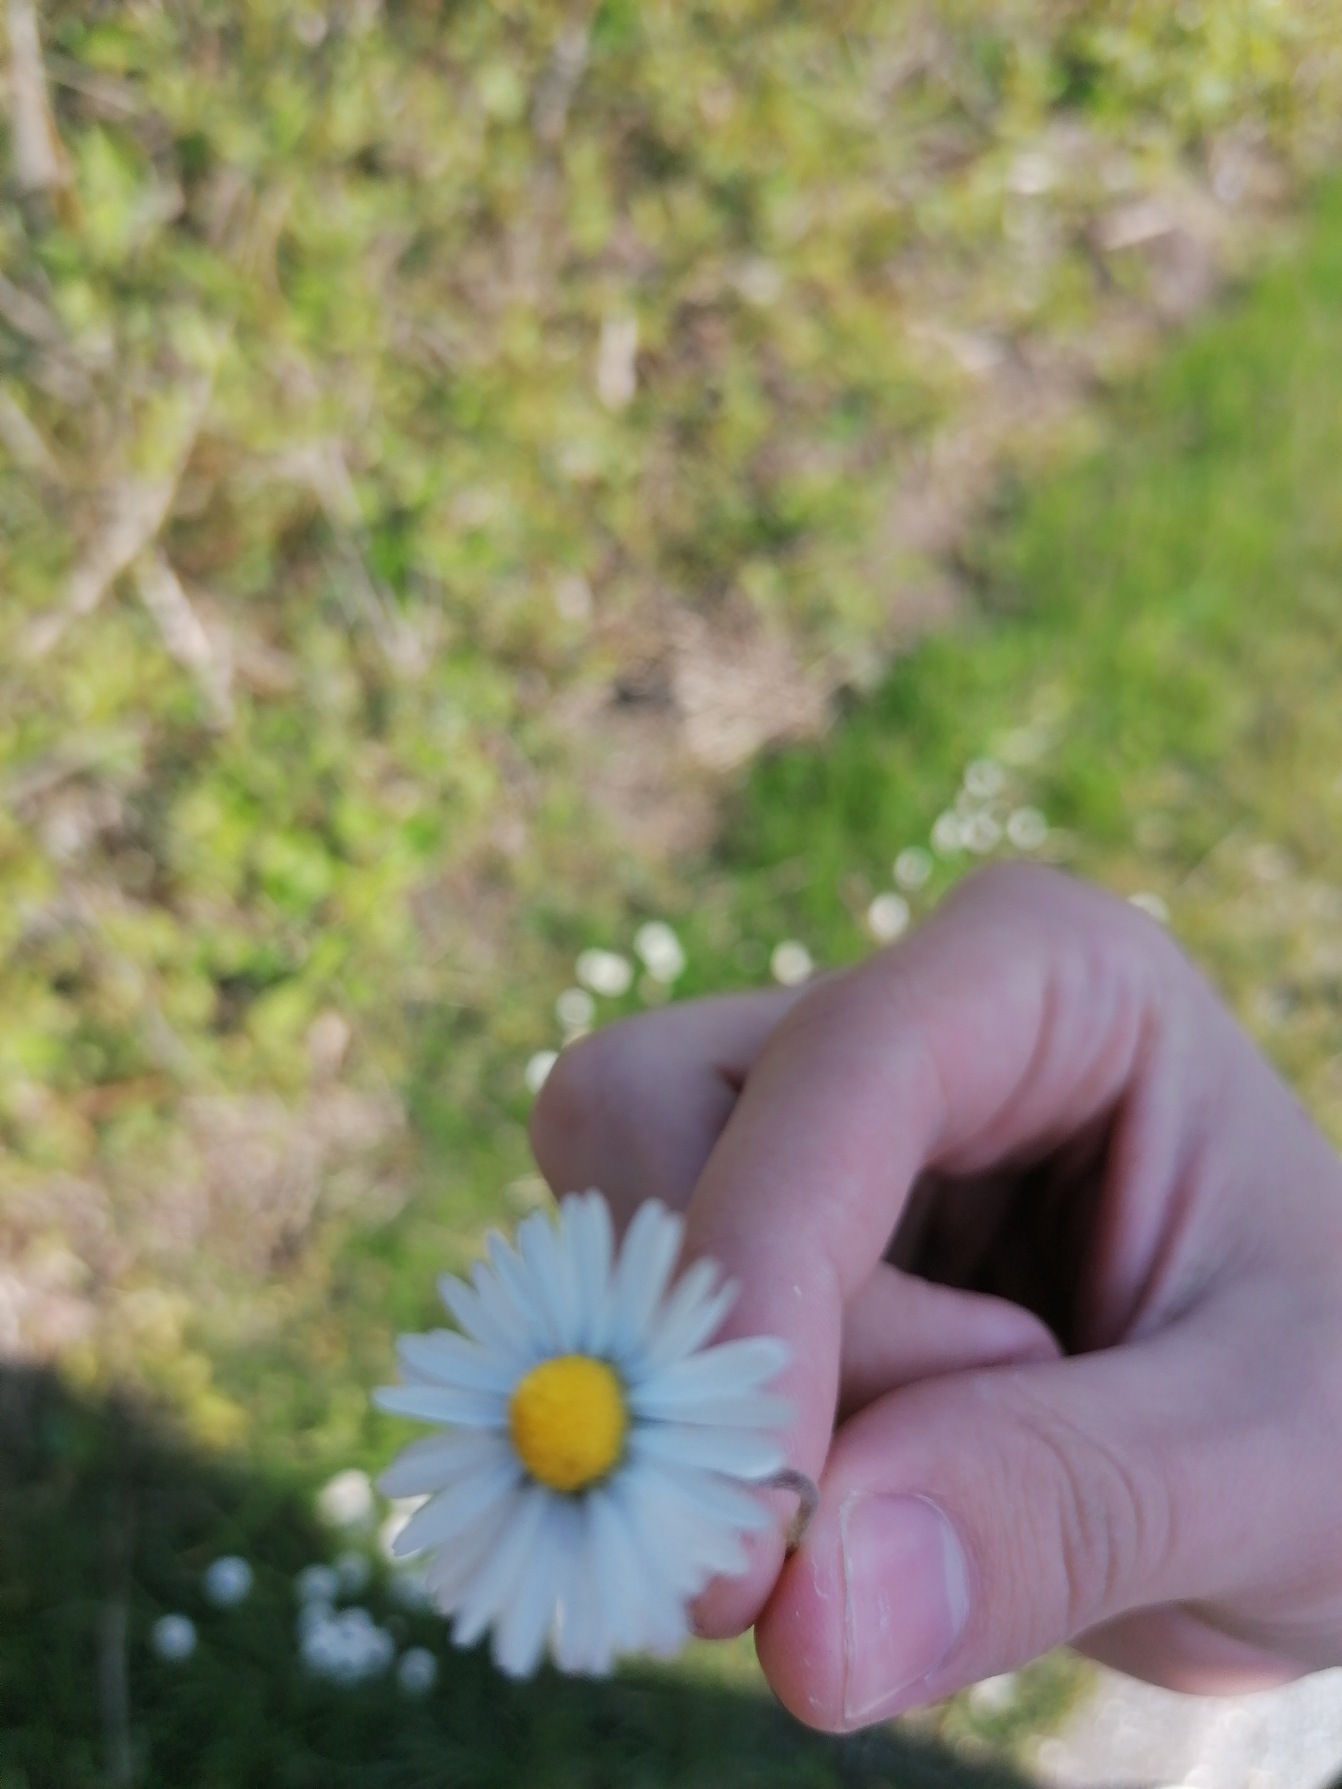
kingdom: Plantae
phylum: Tracheophyta
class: Magnoliopsida
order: Asterales
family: Asteraceae
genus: Bellis
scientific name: Bellis perennis
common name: Tusindfryd
